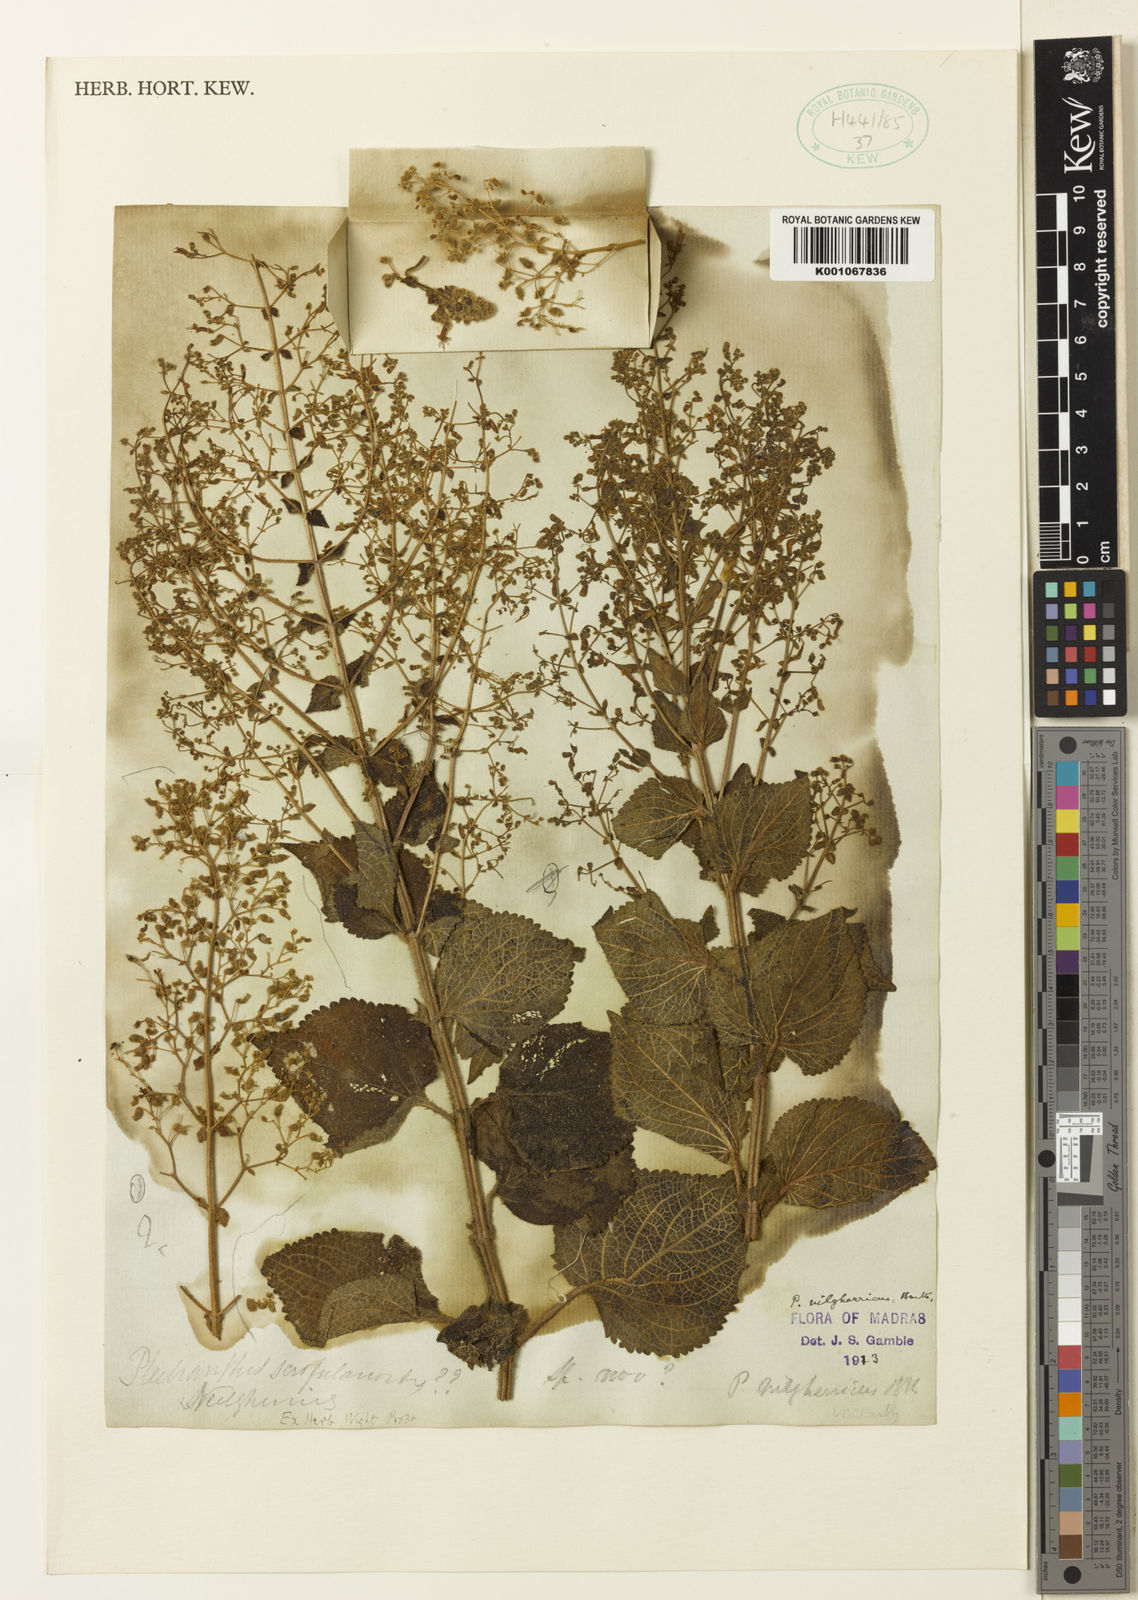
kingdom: Plantae
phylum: Tracheophyta
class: Magnoliopsida
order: Lamiales
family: Lamiaceae
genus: Isodon
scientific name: Isodon nilgherricus
